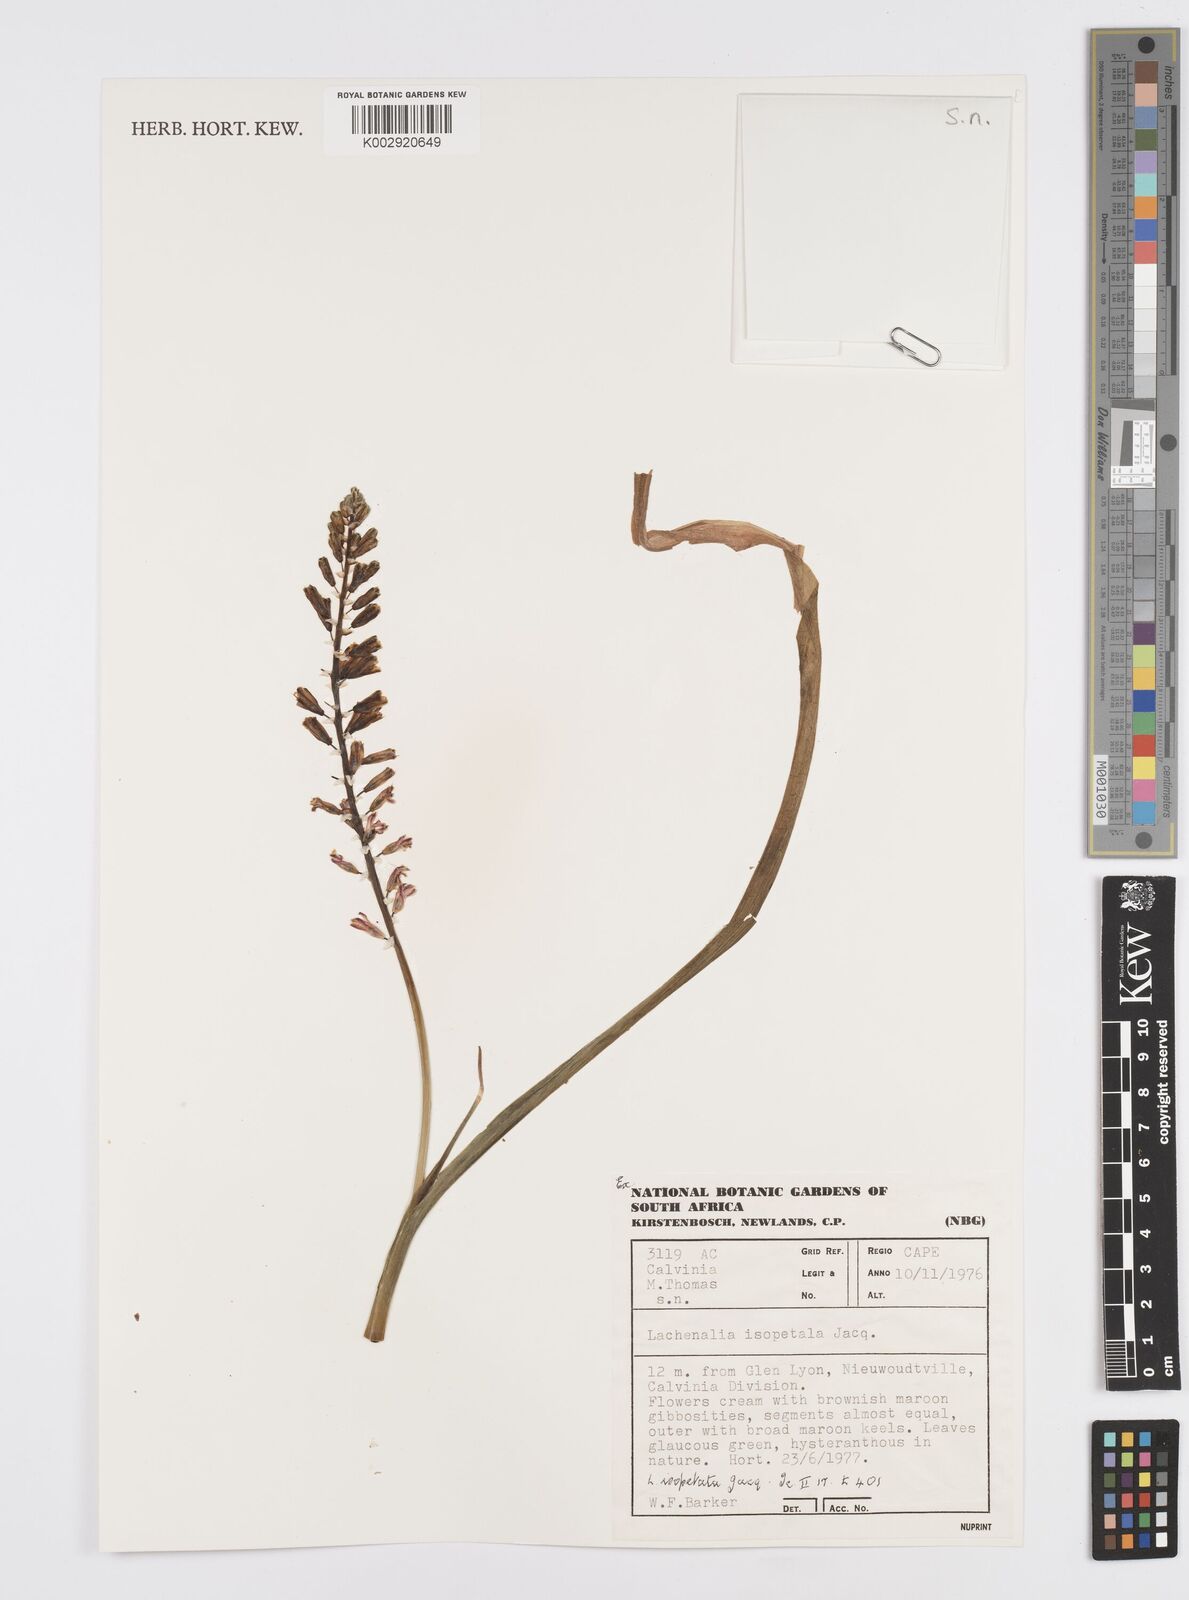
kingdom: Plantae
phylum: Tracheophyta
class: Liliopsida
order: Asparagales
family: Asparagaceae
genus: Lachenalia
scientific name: Lachenalia isopetala
